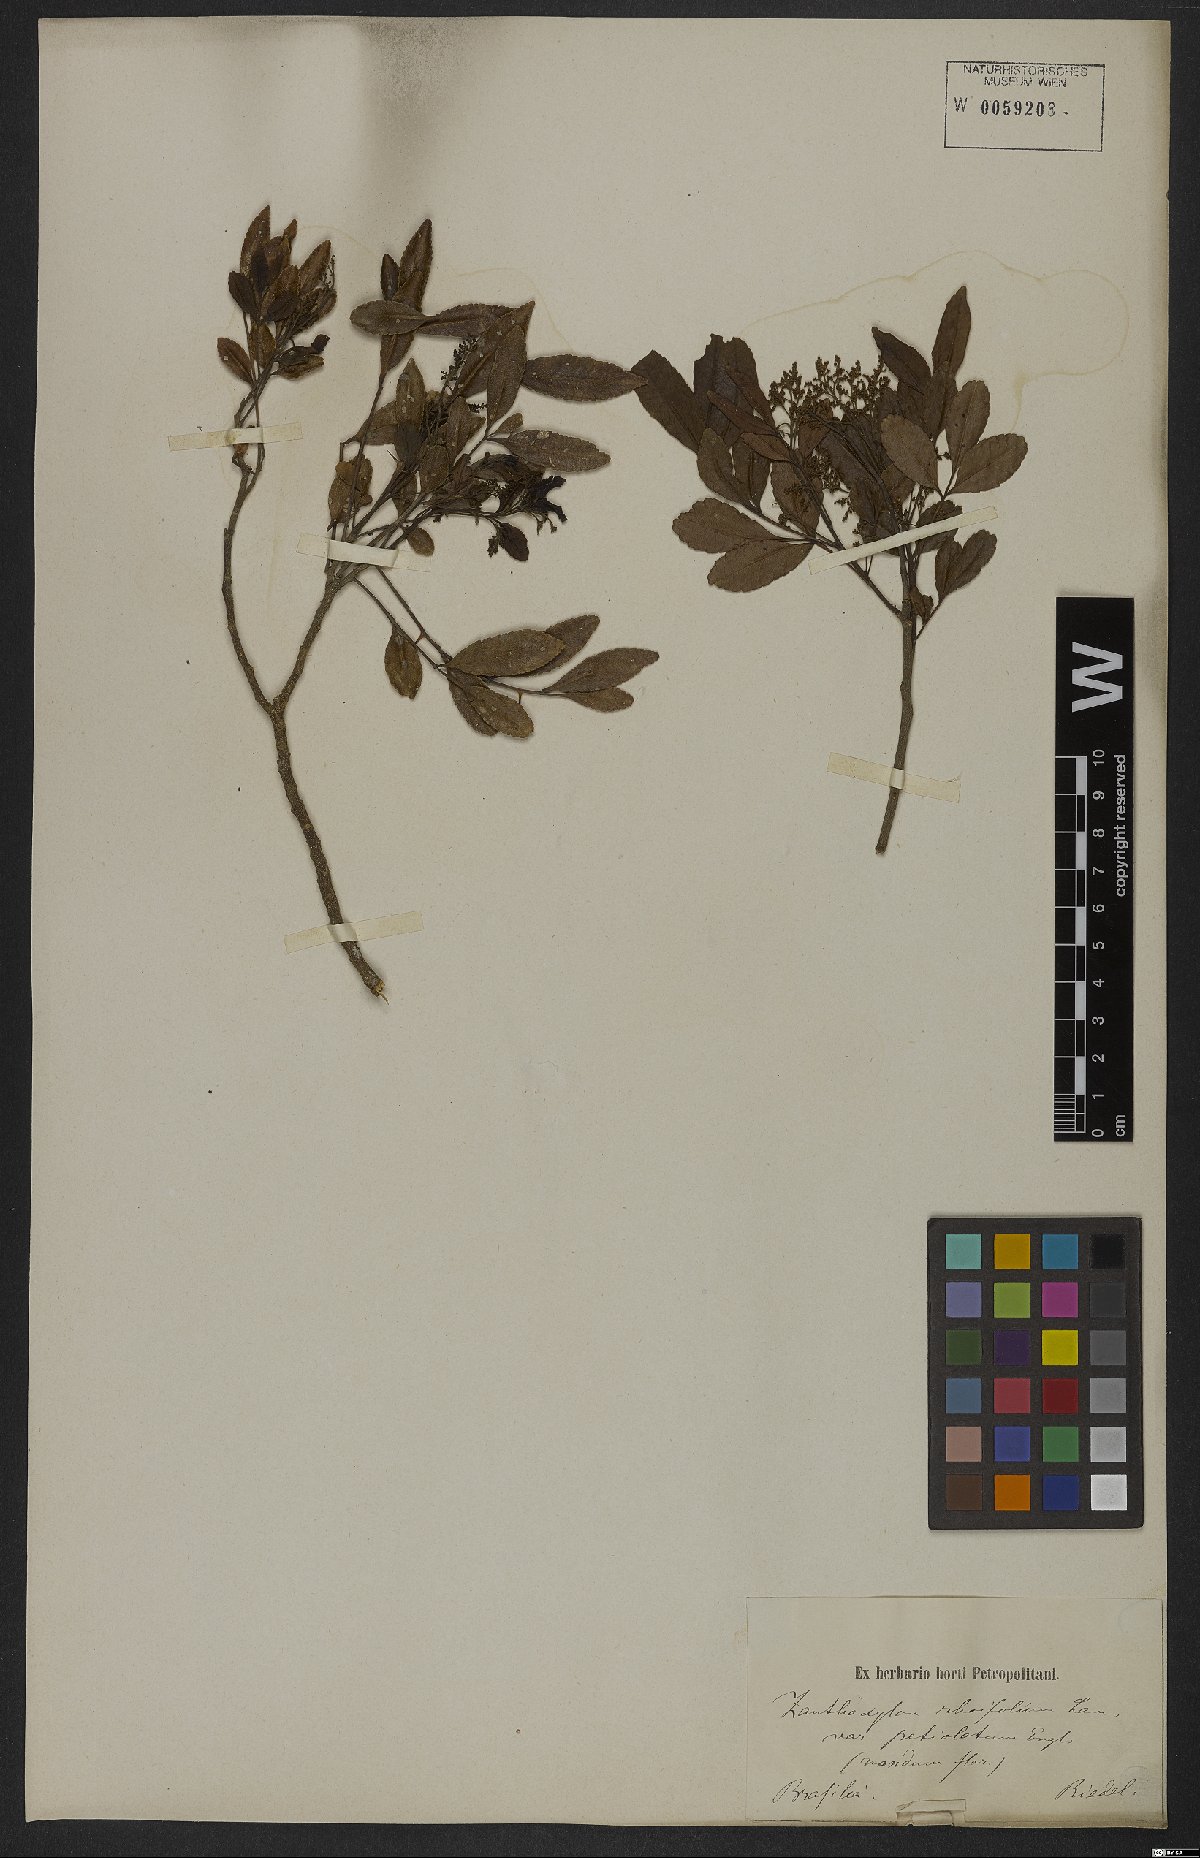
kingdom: Plantae
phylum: Tracheophyta
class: Magnoliopsida
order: Sapindales
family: Rutaceae
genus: Zanthoxylum
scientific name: Zanthoxylum rhoifolium
